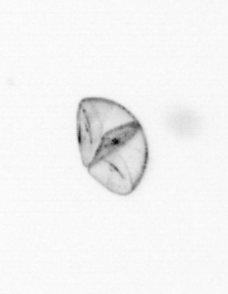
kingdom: Chromista
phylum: Ochrophyta
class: Bacillariophyceae
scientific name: Bacillariophyceae
